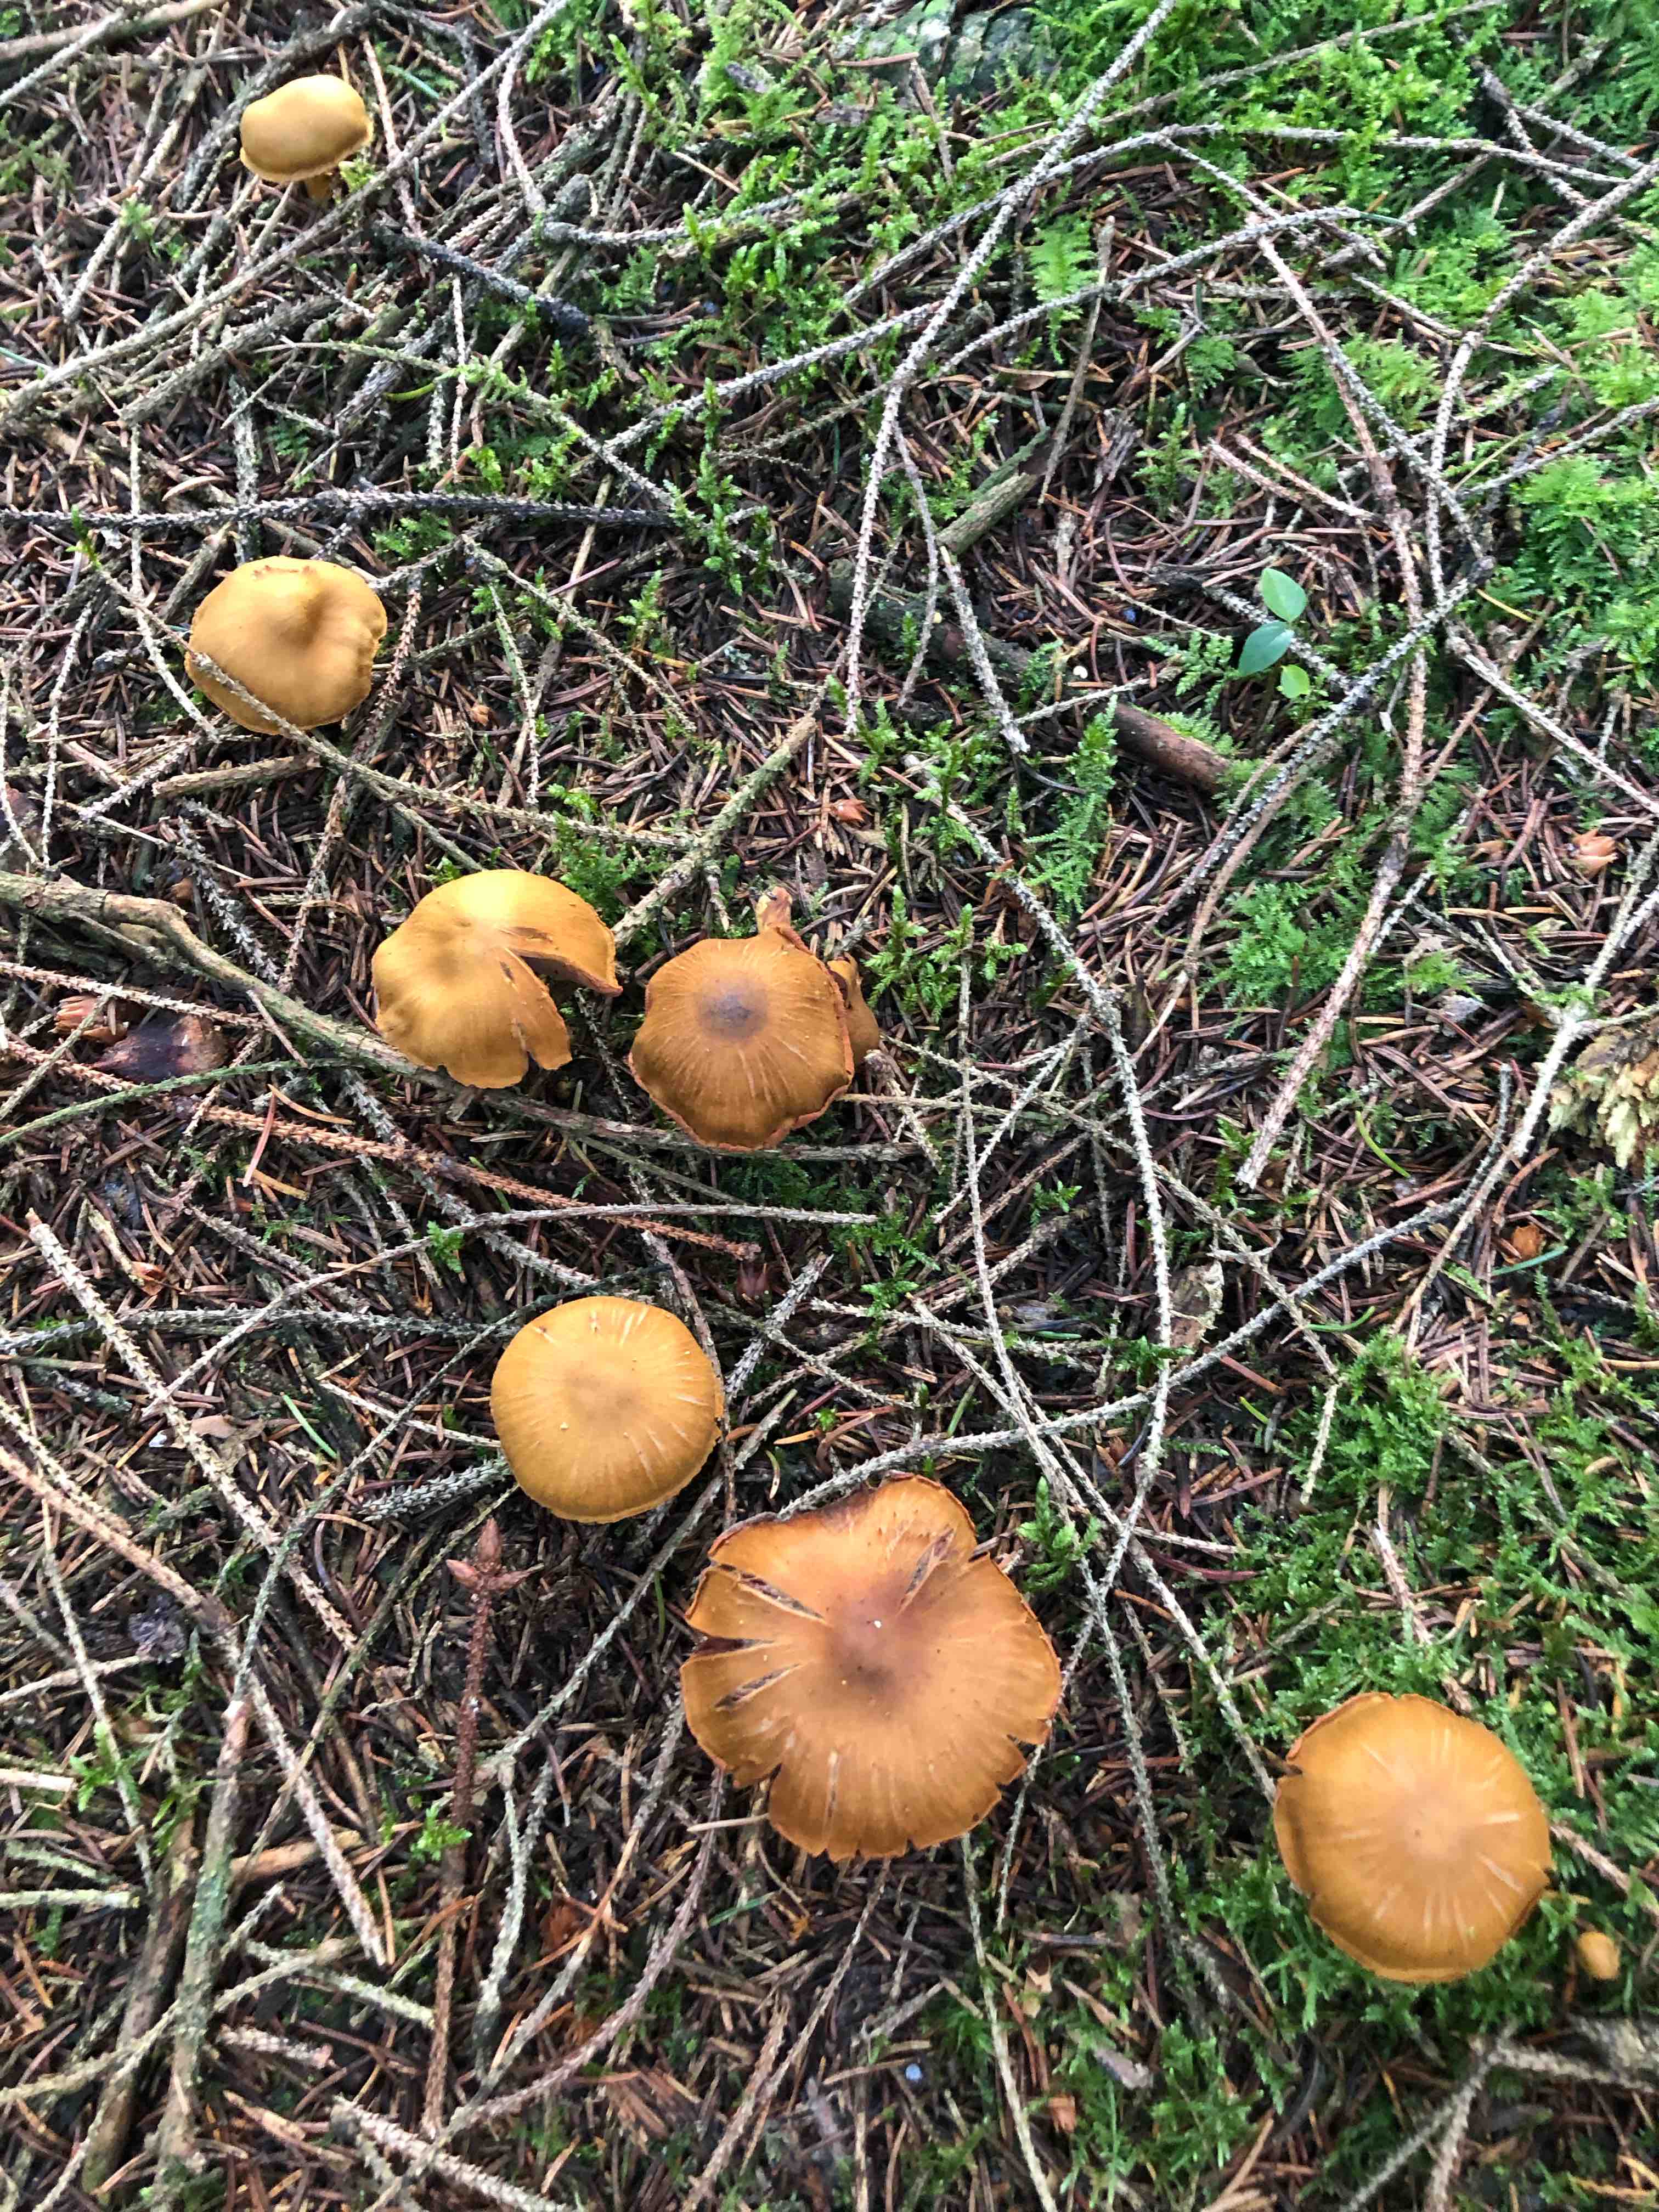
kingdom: Fungi
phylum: Basidiomycota
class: Agaricomycetes
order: Agaricales
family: Cortinariaceae
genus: Cortinarius
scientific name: Cortinarius
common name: cinnoberbladet slørhat
